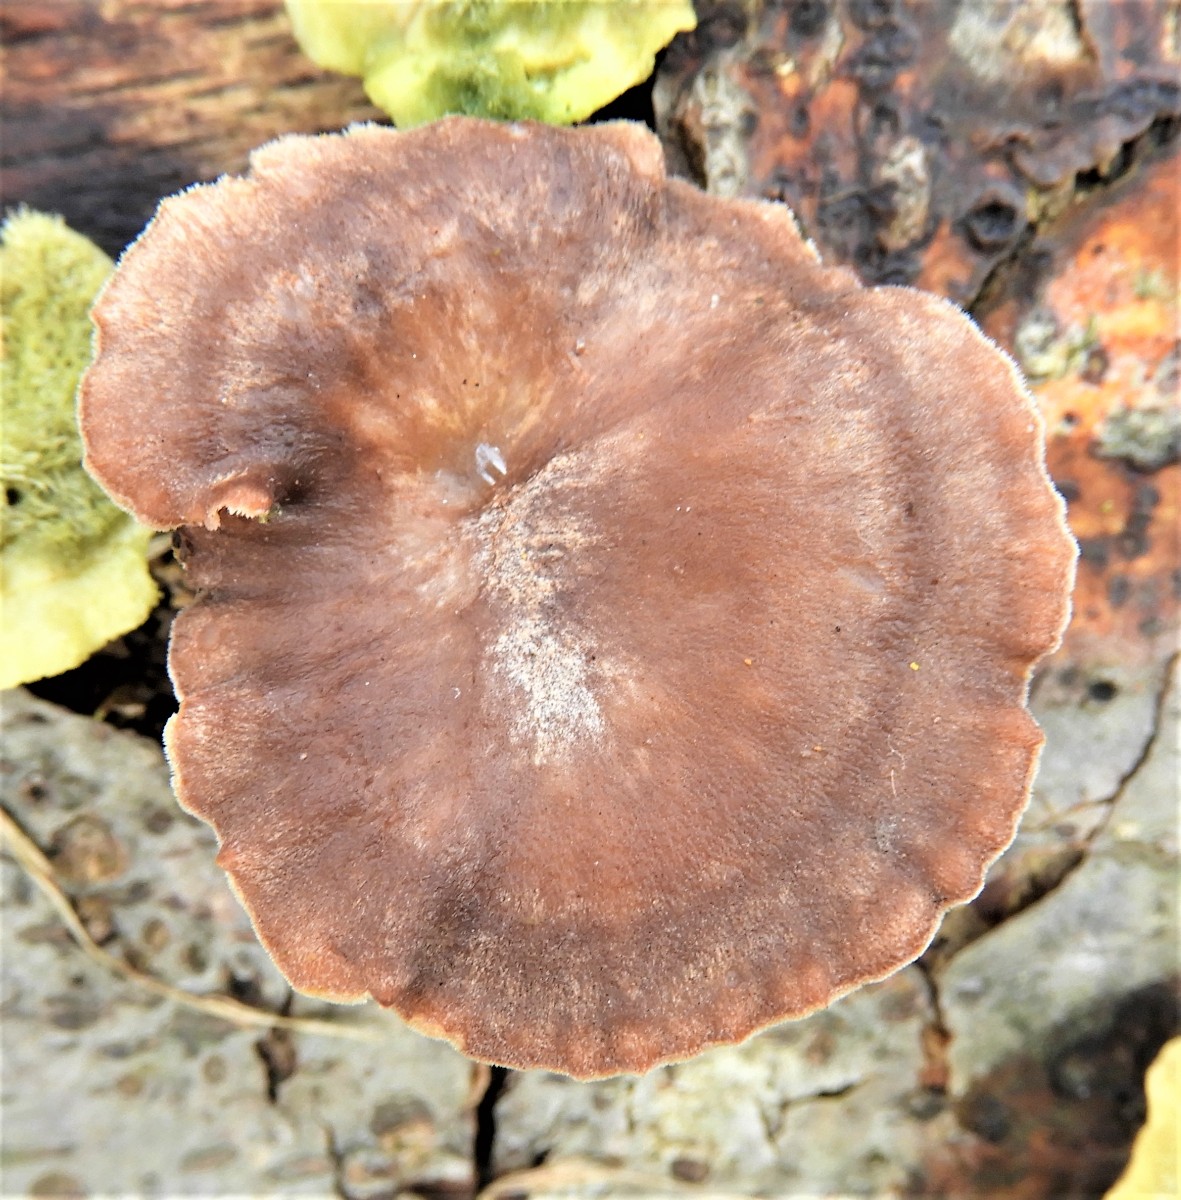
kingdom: Fungi
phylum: Basidiomycota
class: Agaricomycetes
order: Polyporales
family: Polyporaceae
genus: Lentinus
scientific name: Lentinus brumalis
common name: vinter-stilkporesvamp
